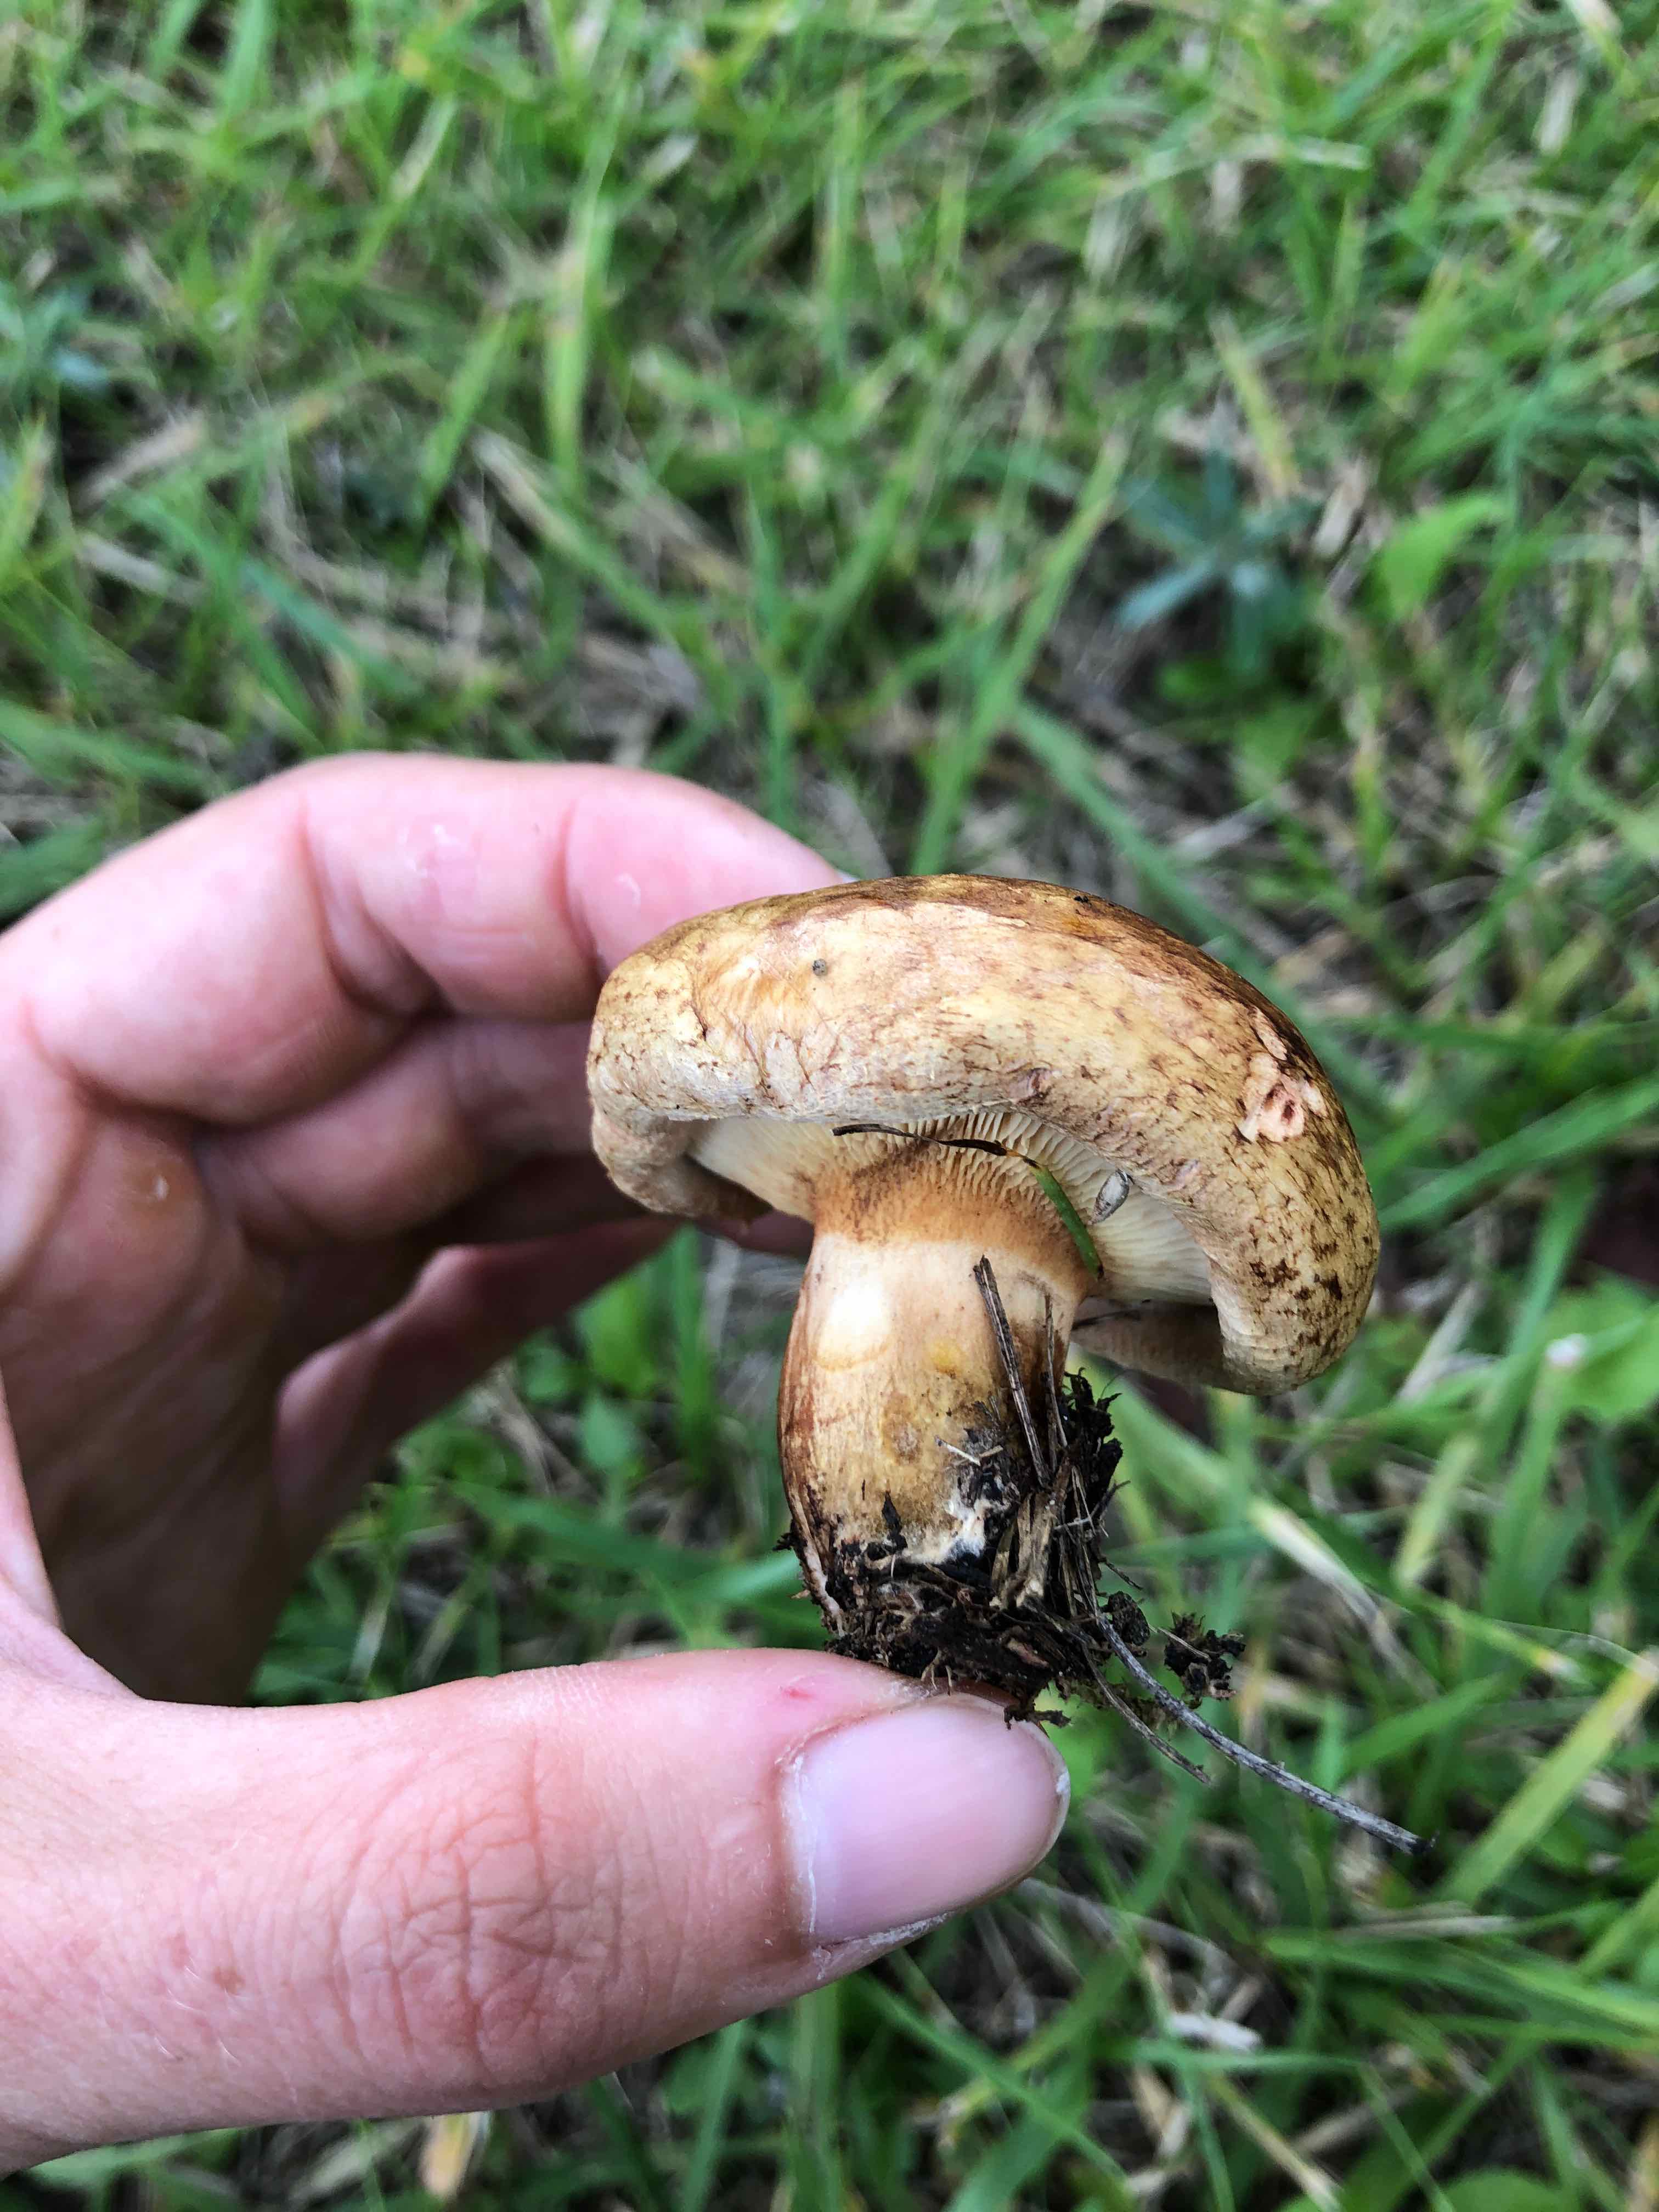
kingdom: Fungi
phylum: Basidiomycota
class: Agaricomycetes
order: Boletales
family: Paxillaceae
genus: Paxillus
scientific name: Paxillus
